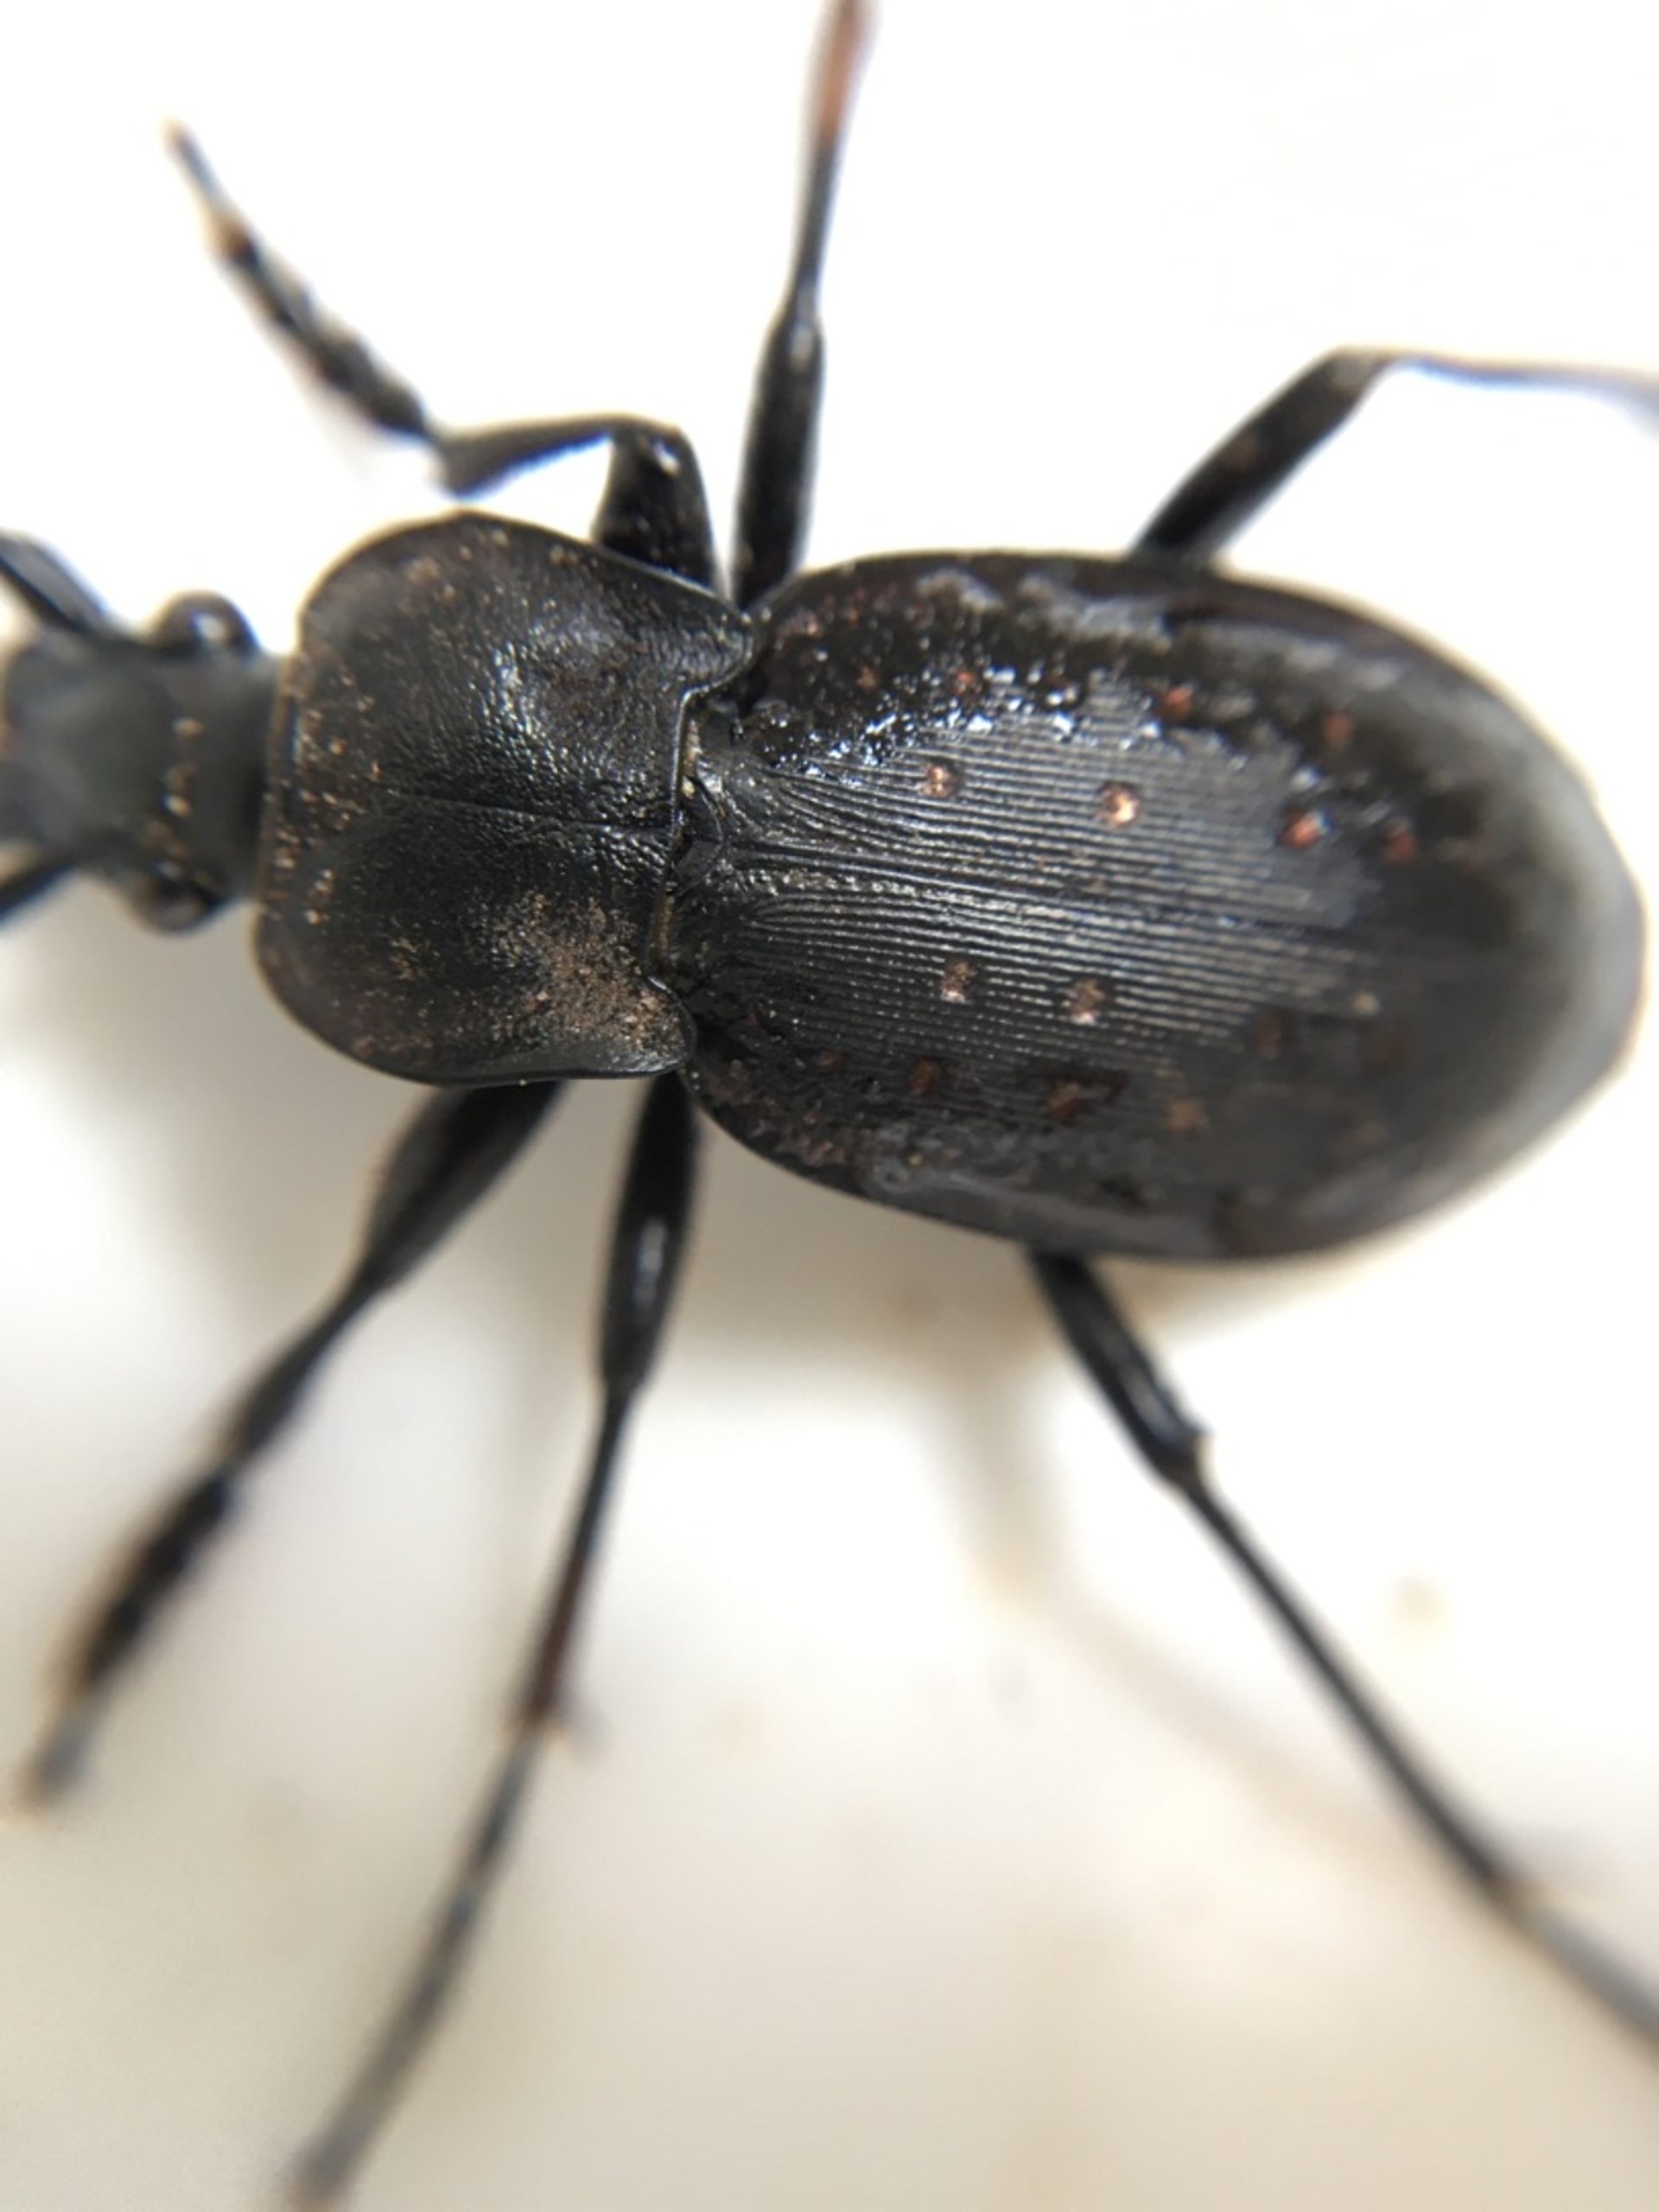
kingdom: Animalia
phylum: Arthropoda
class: Insecta
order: Coleoptera
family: Carabidae
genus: Carabus
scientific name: Carabus hortensis
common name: Guldpletløber
